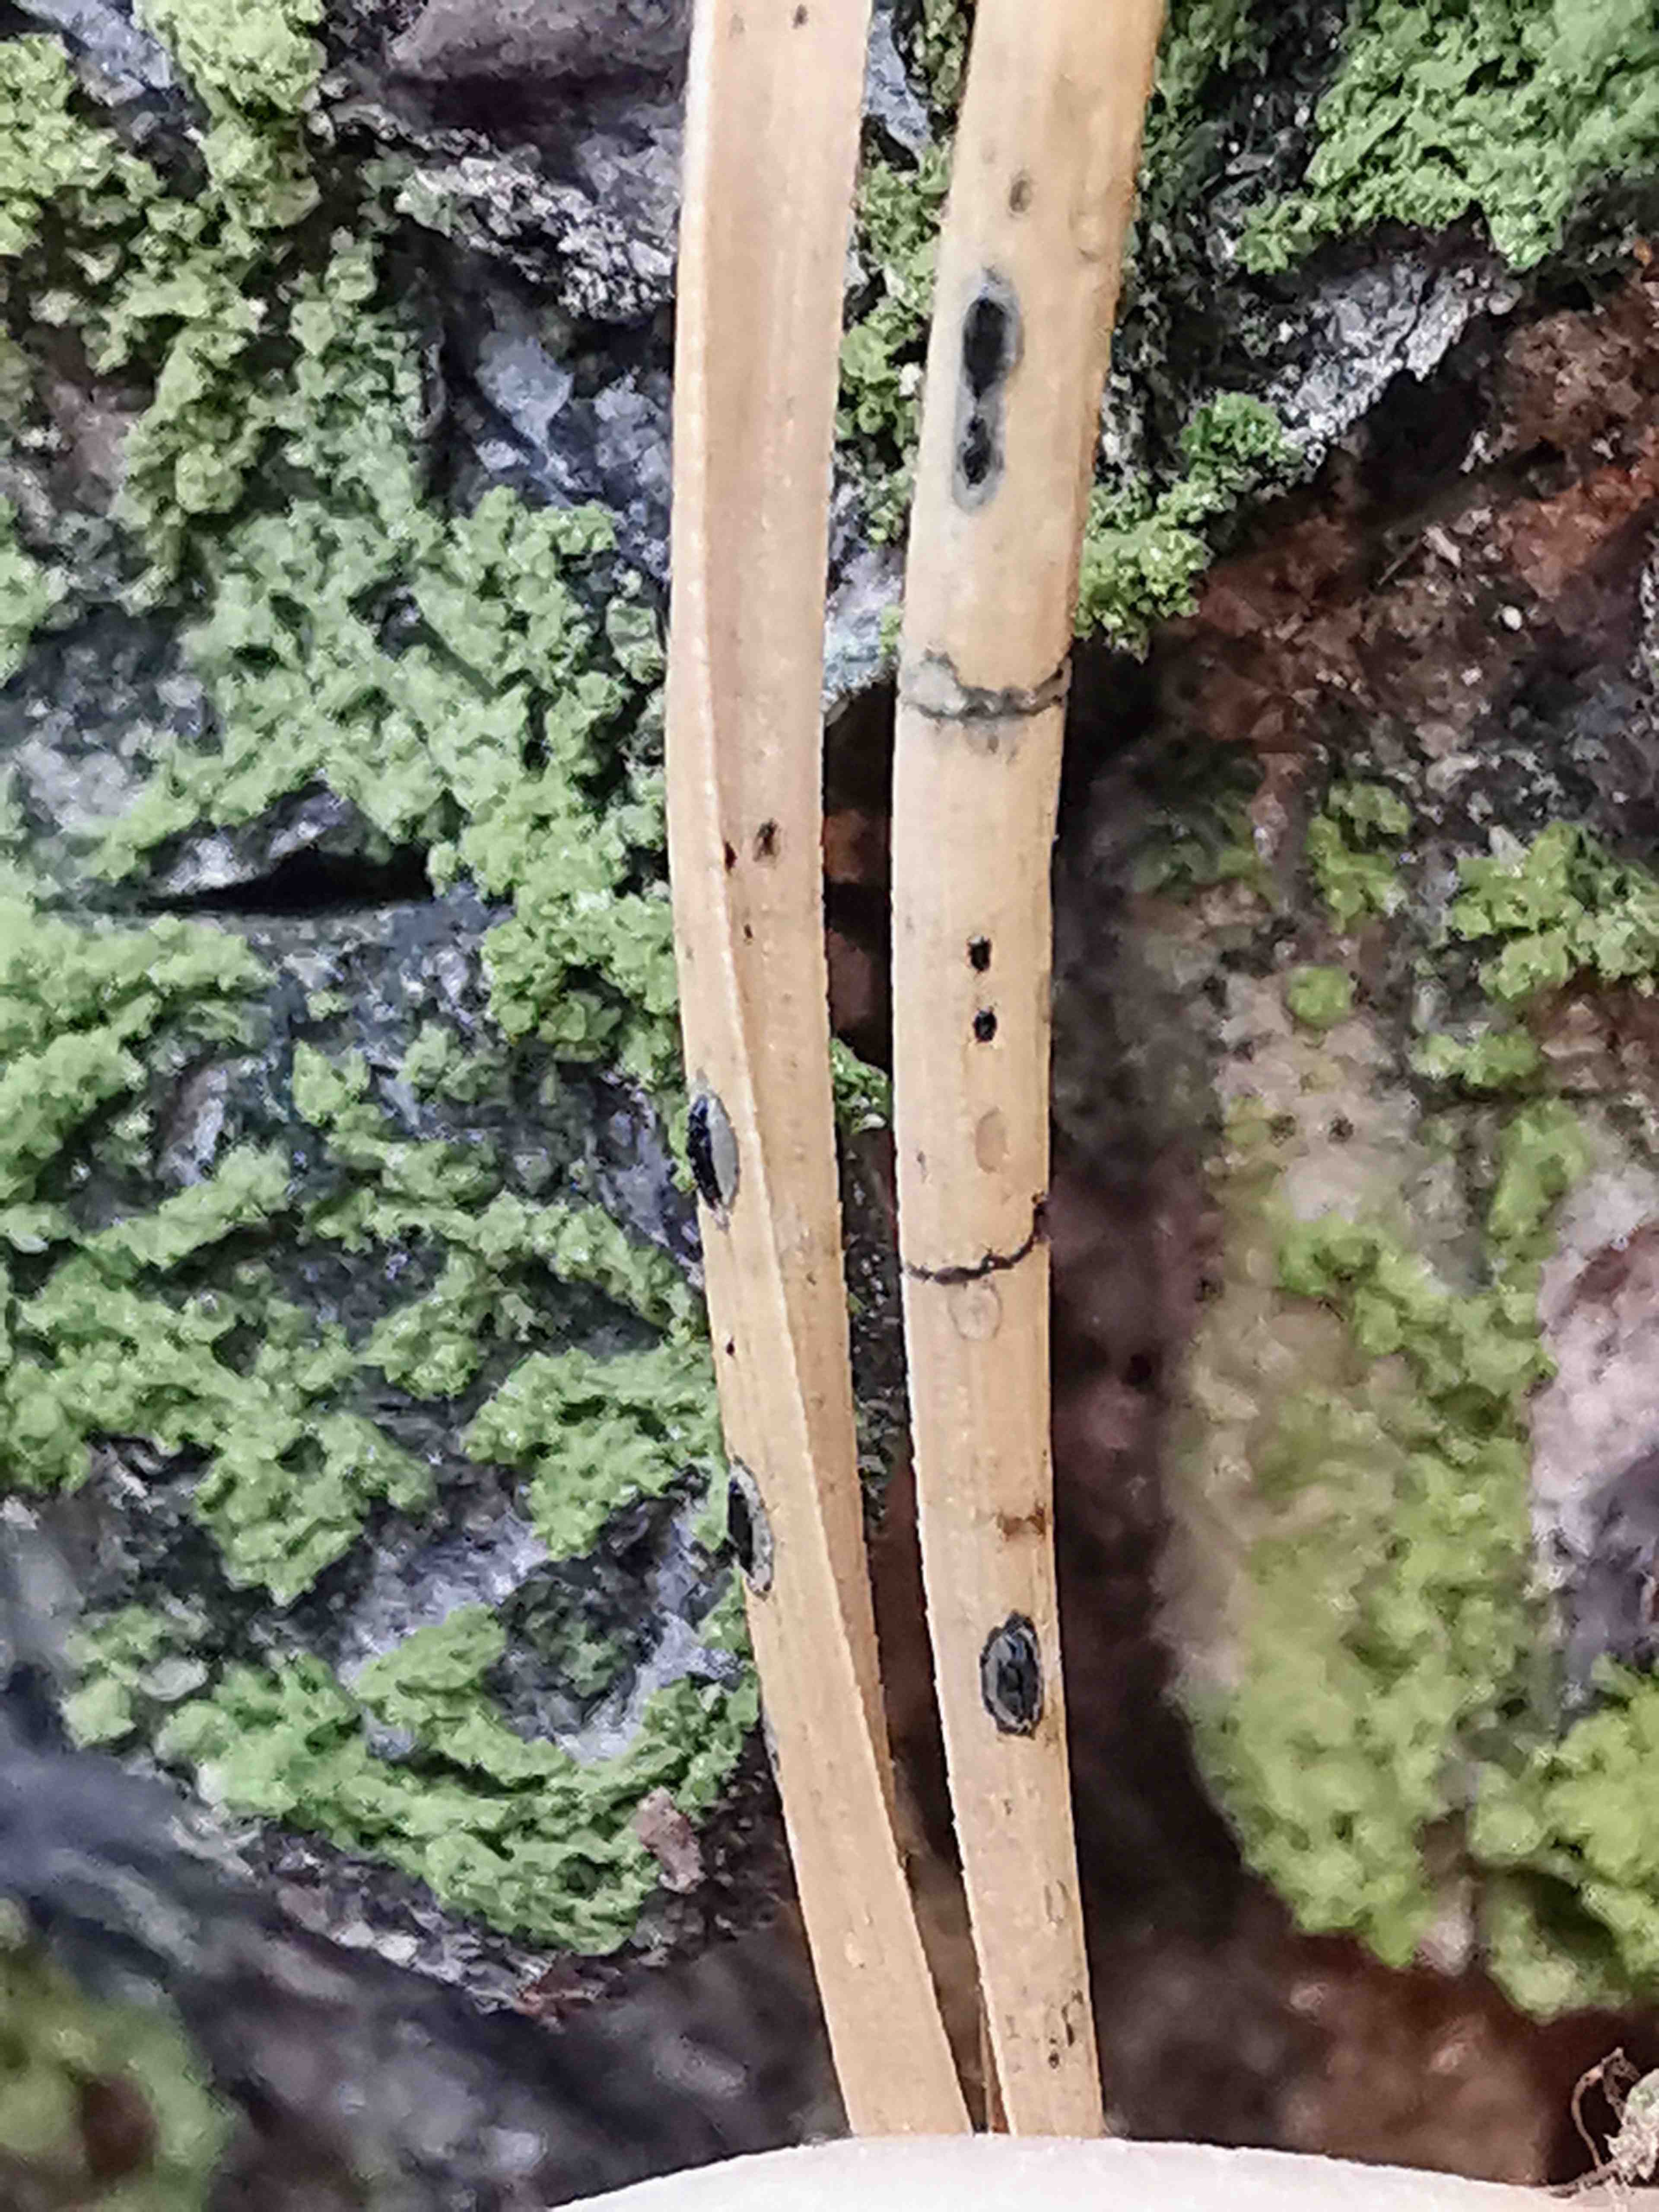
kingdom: Fungi
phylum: Ascomycota
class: Leotiomycetes
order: Rhytismatales
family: Rhytismataceae
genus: Lophodermium
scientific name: Lophodermium pinastri
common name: fyrre-fureplet
